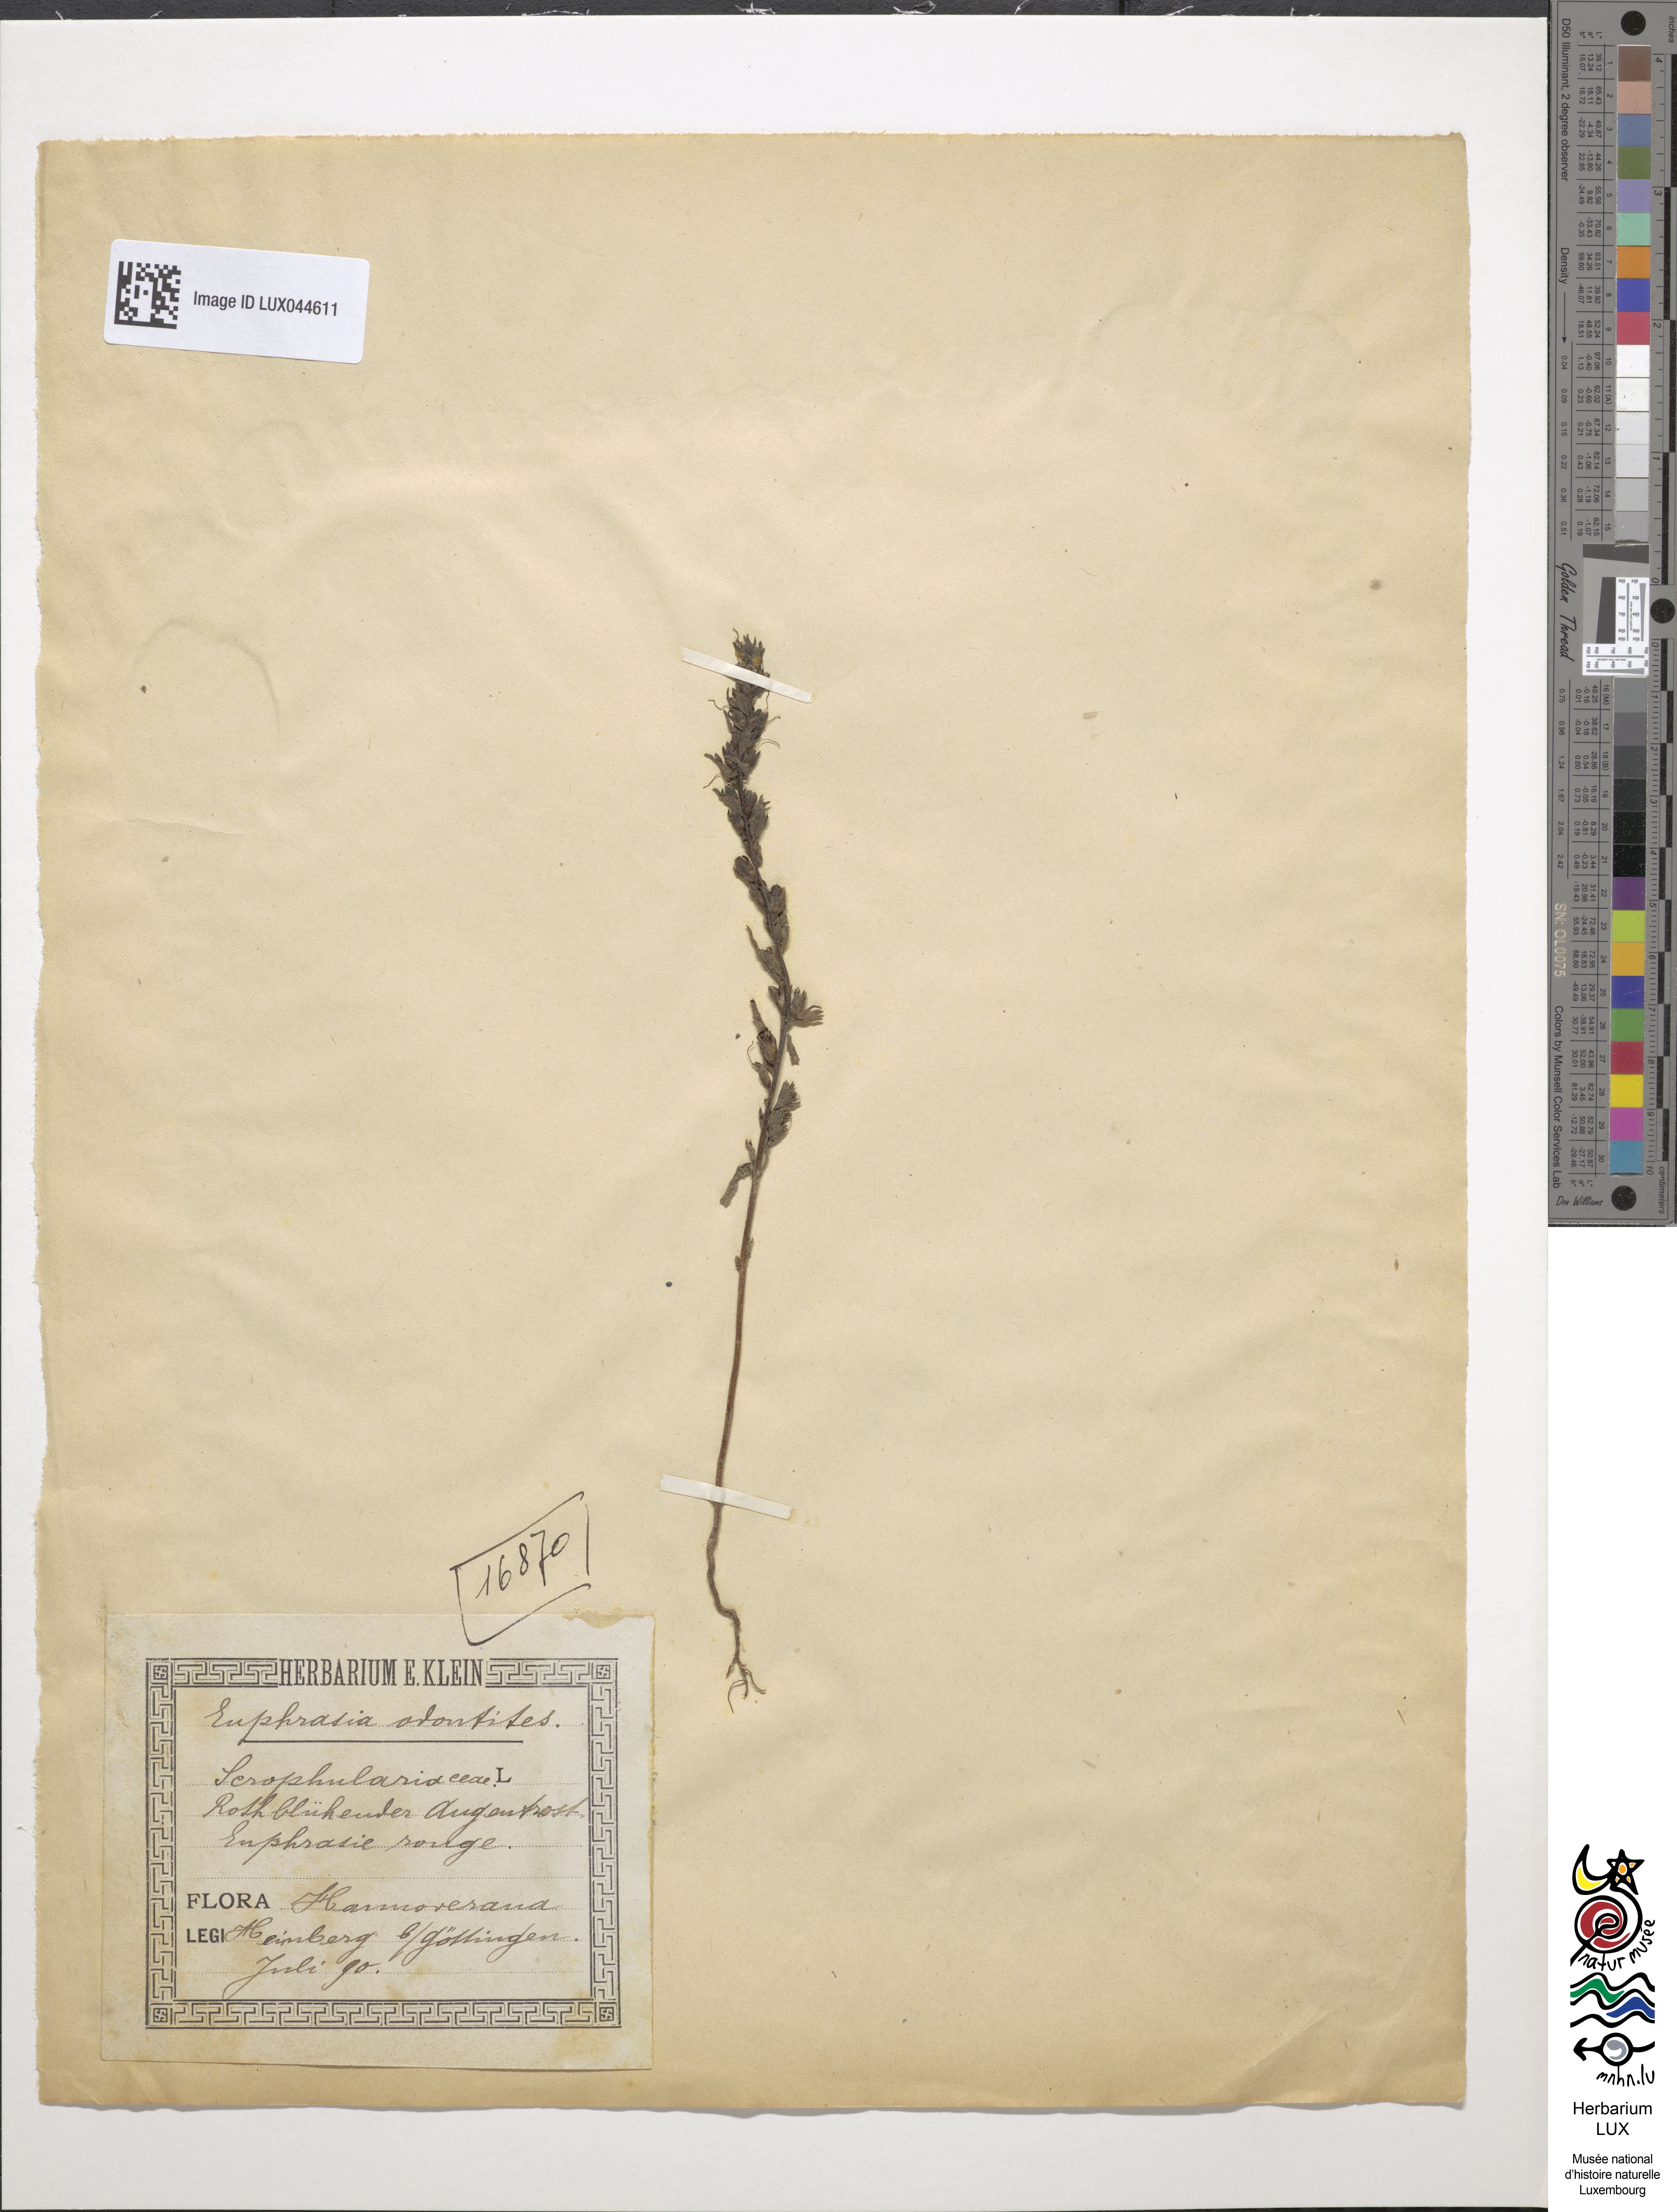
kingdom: Plantae
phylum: Tracheophyta
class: Magnoliopsida
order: Lamiales
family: Orobanchaceae
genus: Odontites
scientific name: Odontites vulgaris
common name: Broomrape
